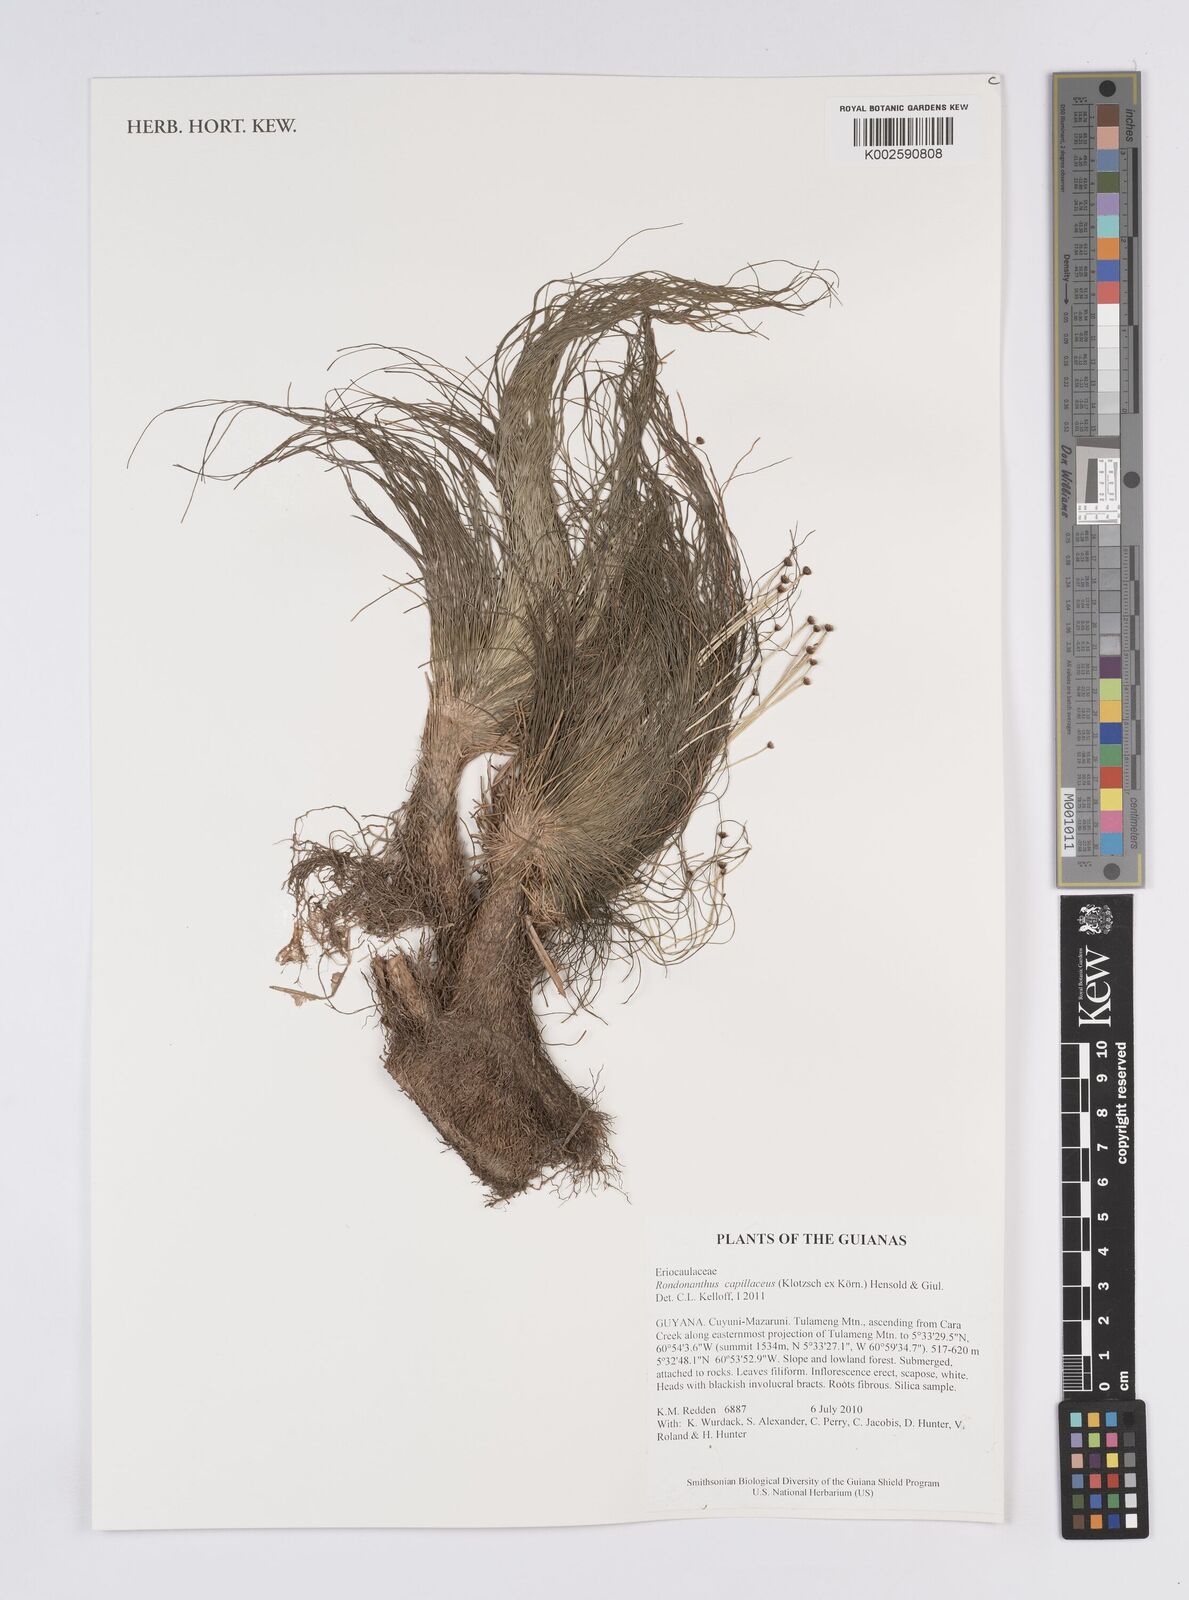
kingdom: Plantae
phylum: Tracheophyta
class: Liliopsida
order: Poales
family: Eriocaulaceae
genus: Rondonanthus
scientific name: Rondonanthus capillaceus
